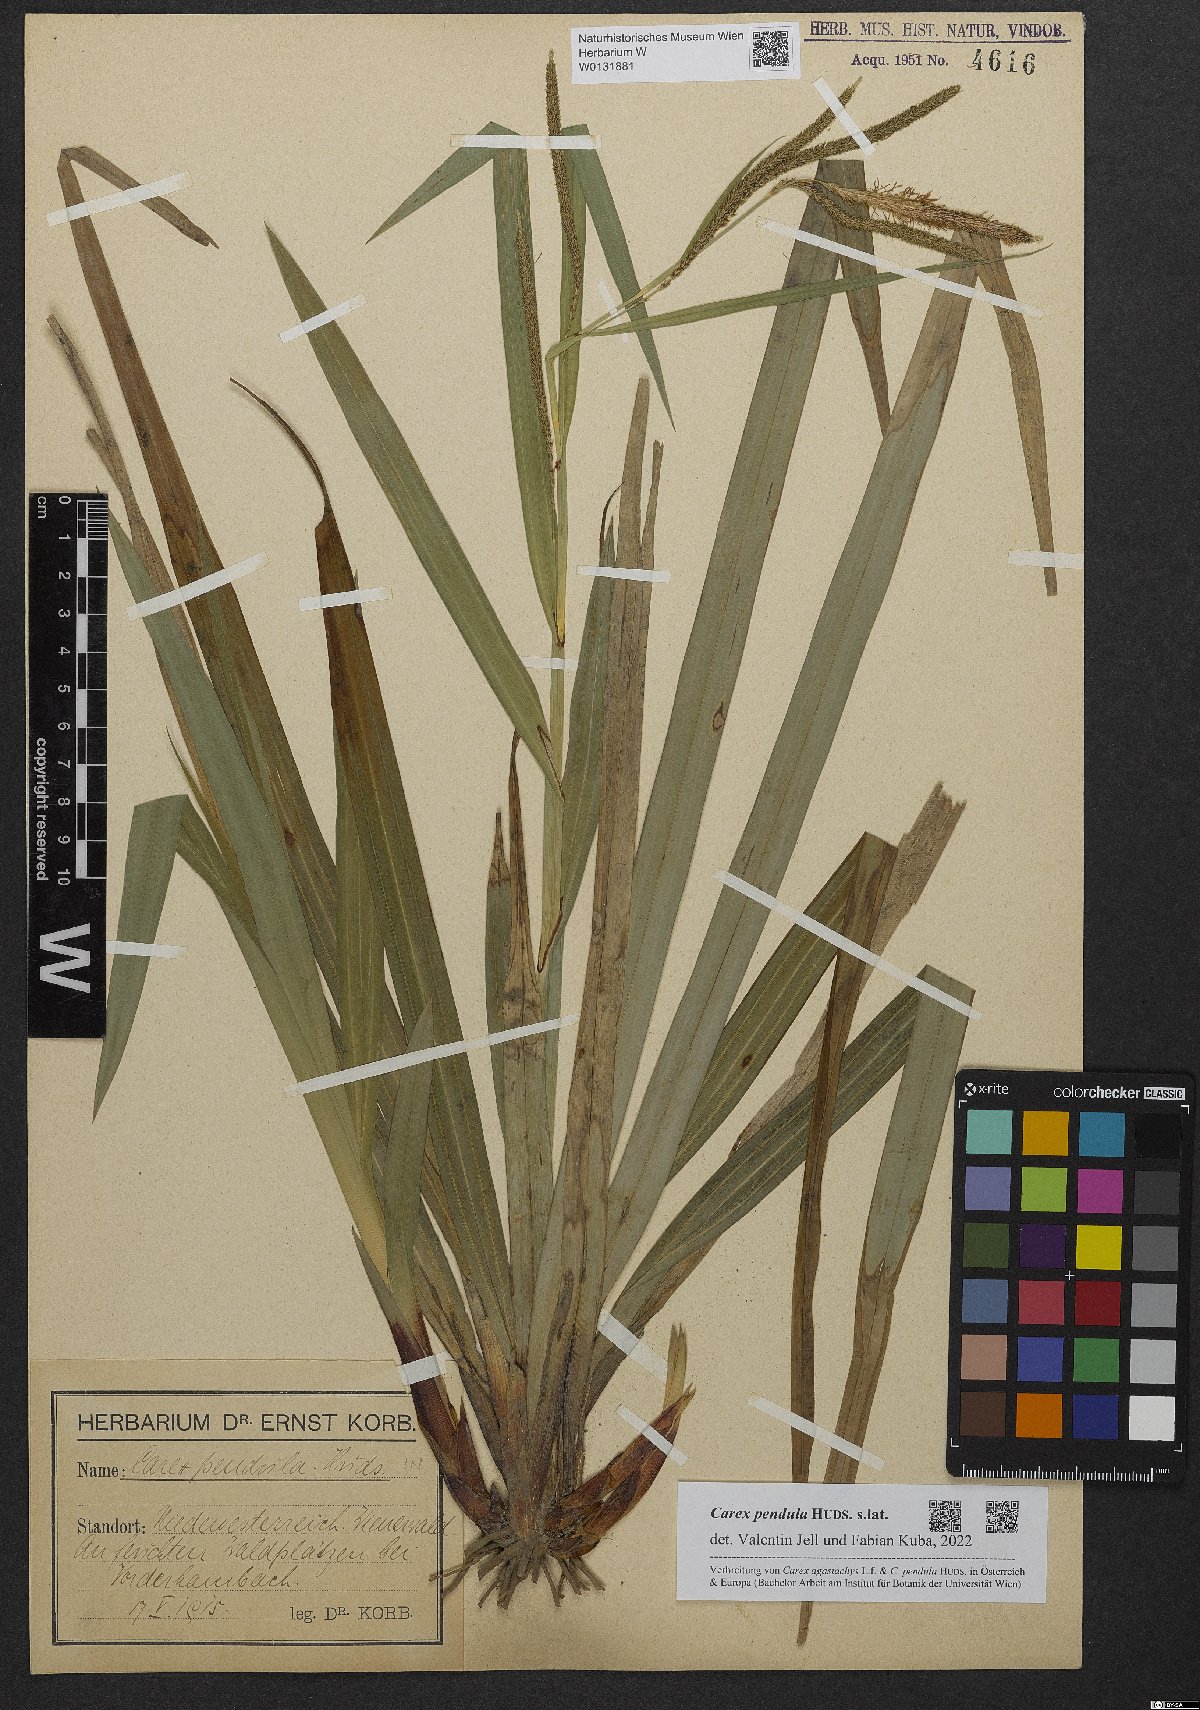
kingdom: Plantae
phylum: Tracheophyta
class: Liliopsida
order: Poales
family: Cyperaceae
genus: Carex
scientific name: Carex pendula
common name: Pendulous sedge
